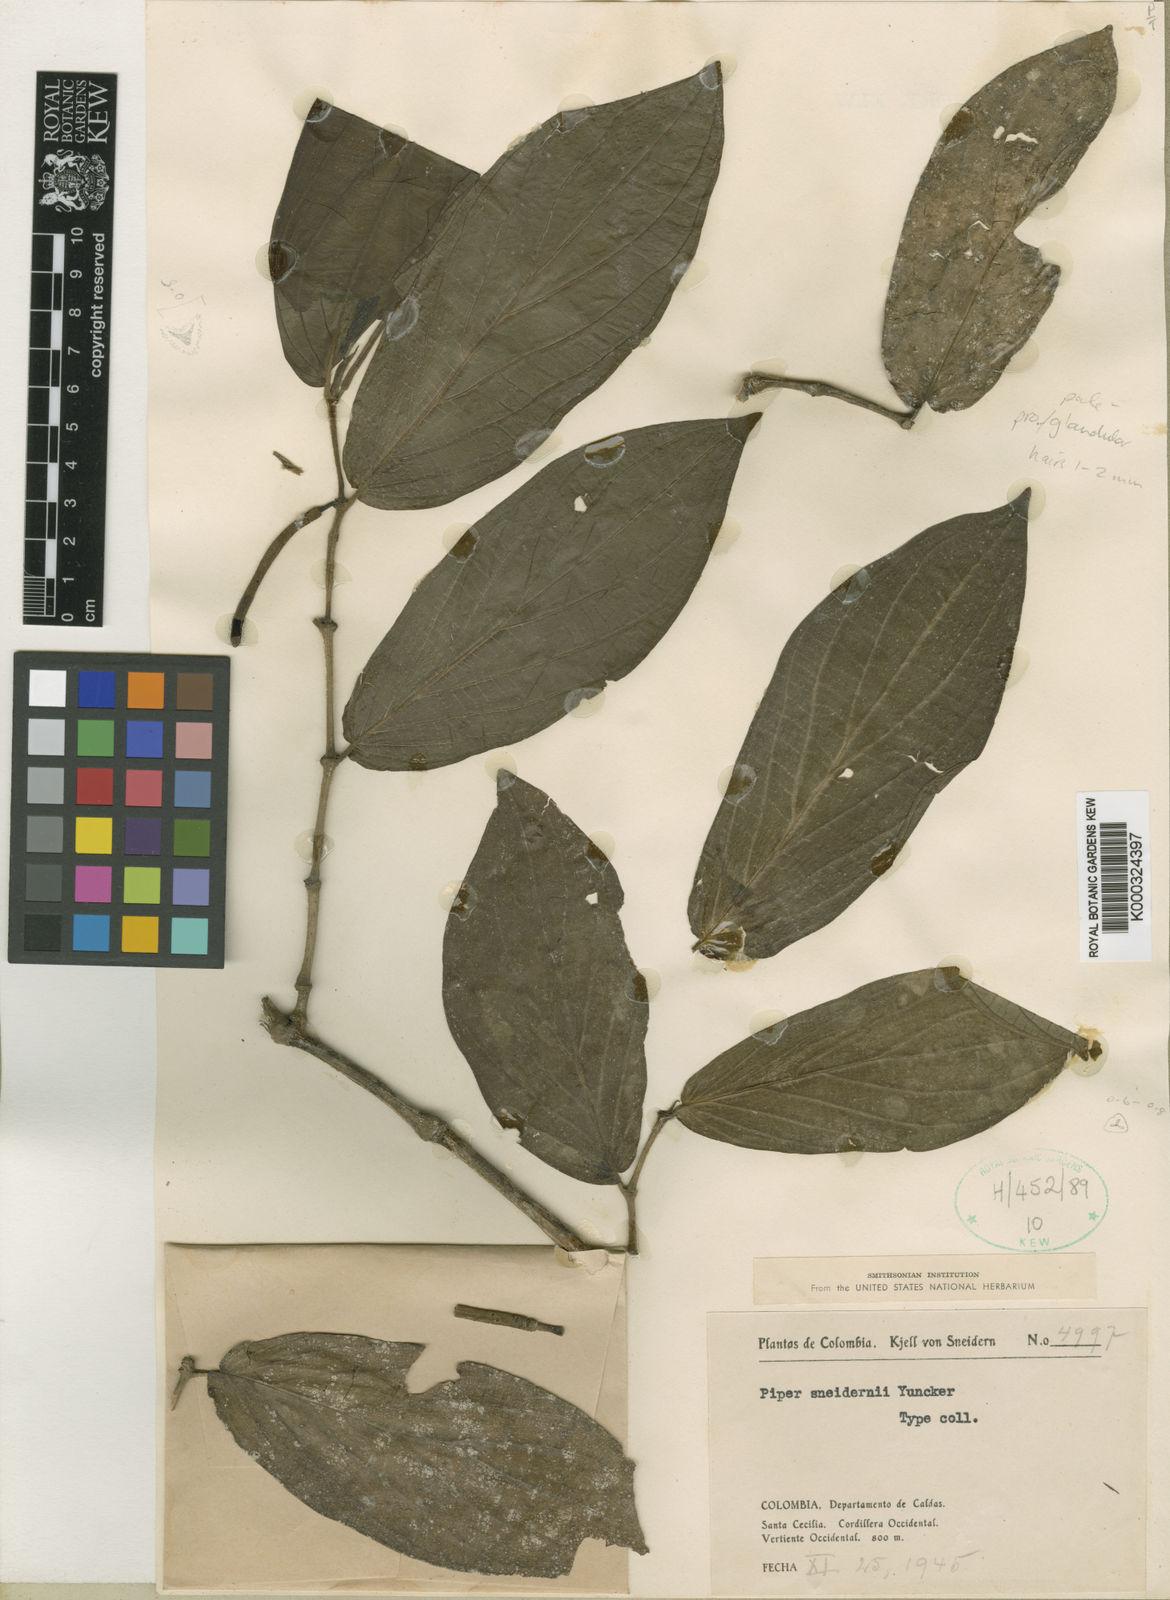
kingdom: Plantae
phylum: Tracheophyta
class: Magnoliopsida
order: Piperales
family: Piperaceae
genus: Piper
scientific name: Piper sneidernii
